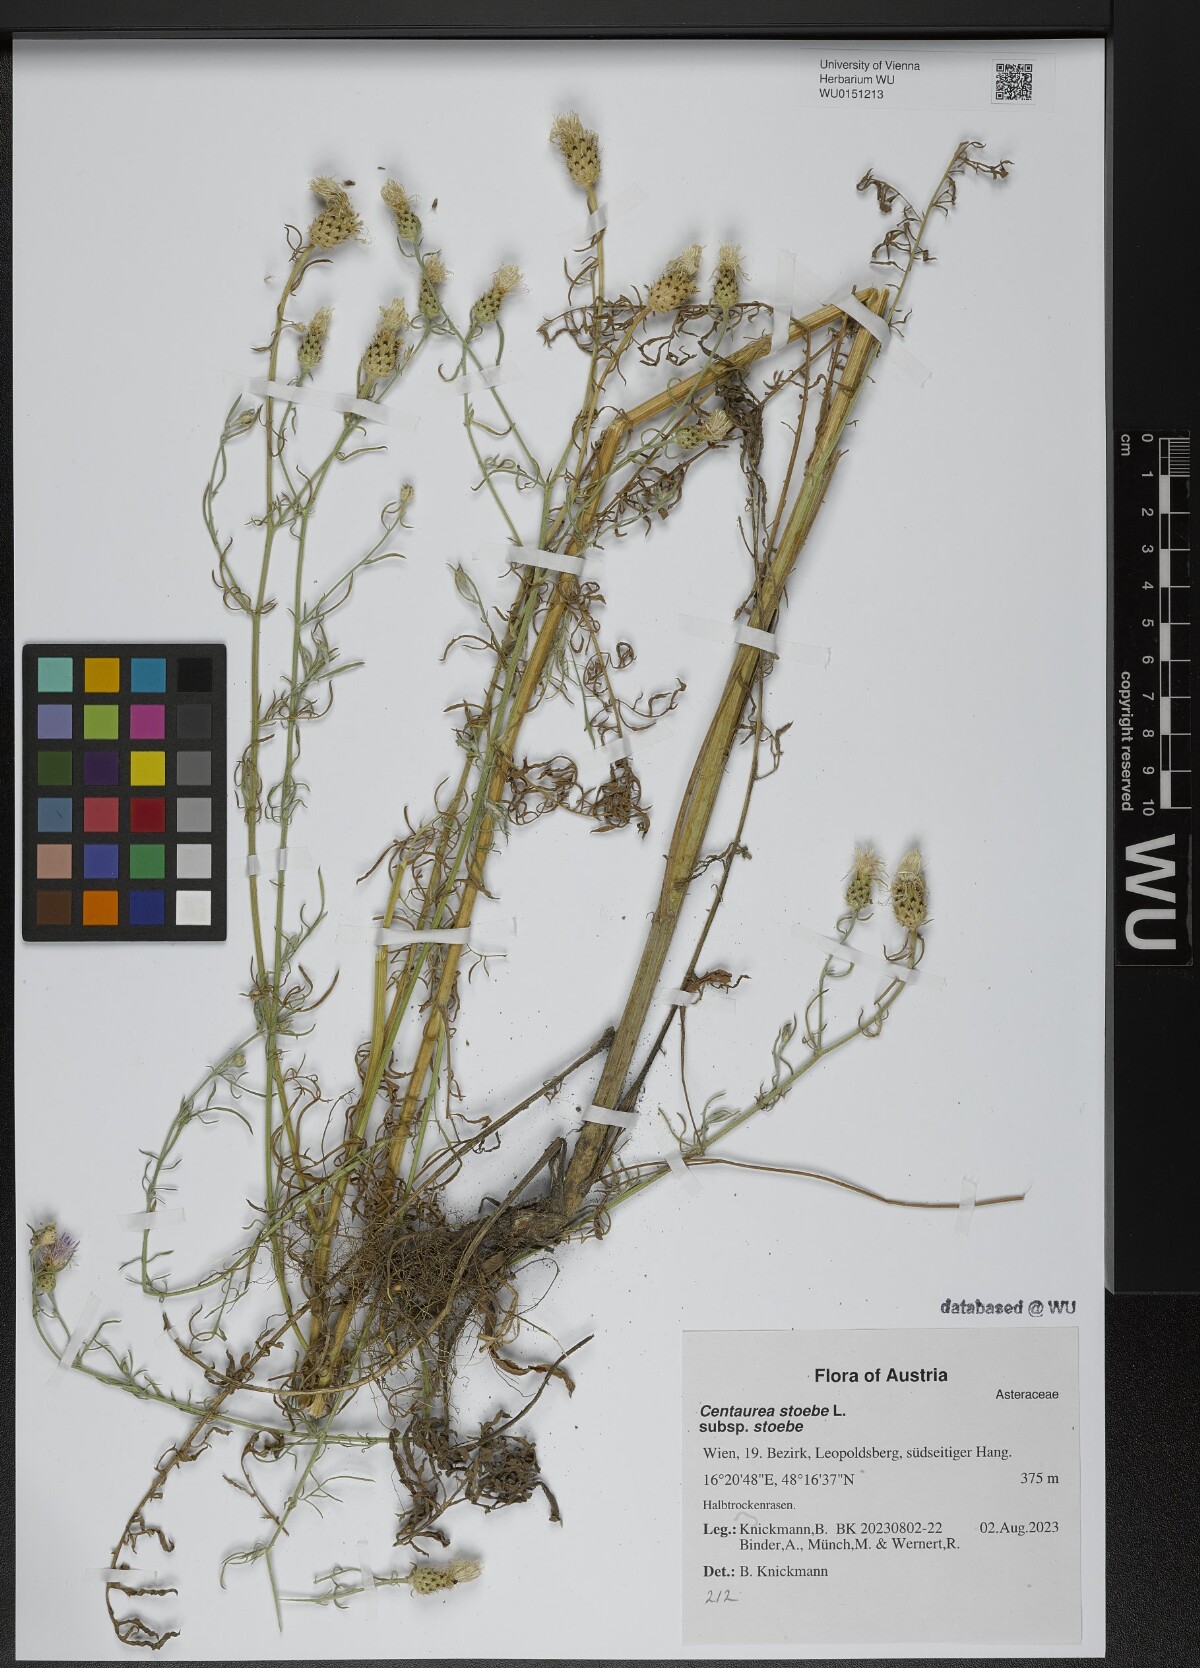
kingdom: Plantae
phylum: Tracheophyta
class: Magnoliopsida
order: Asterales
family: Asteraceae
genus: Centaurea
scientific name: Centaurea stoebe
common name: Spotted knapweed
